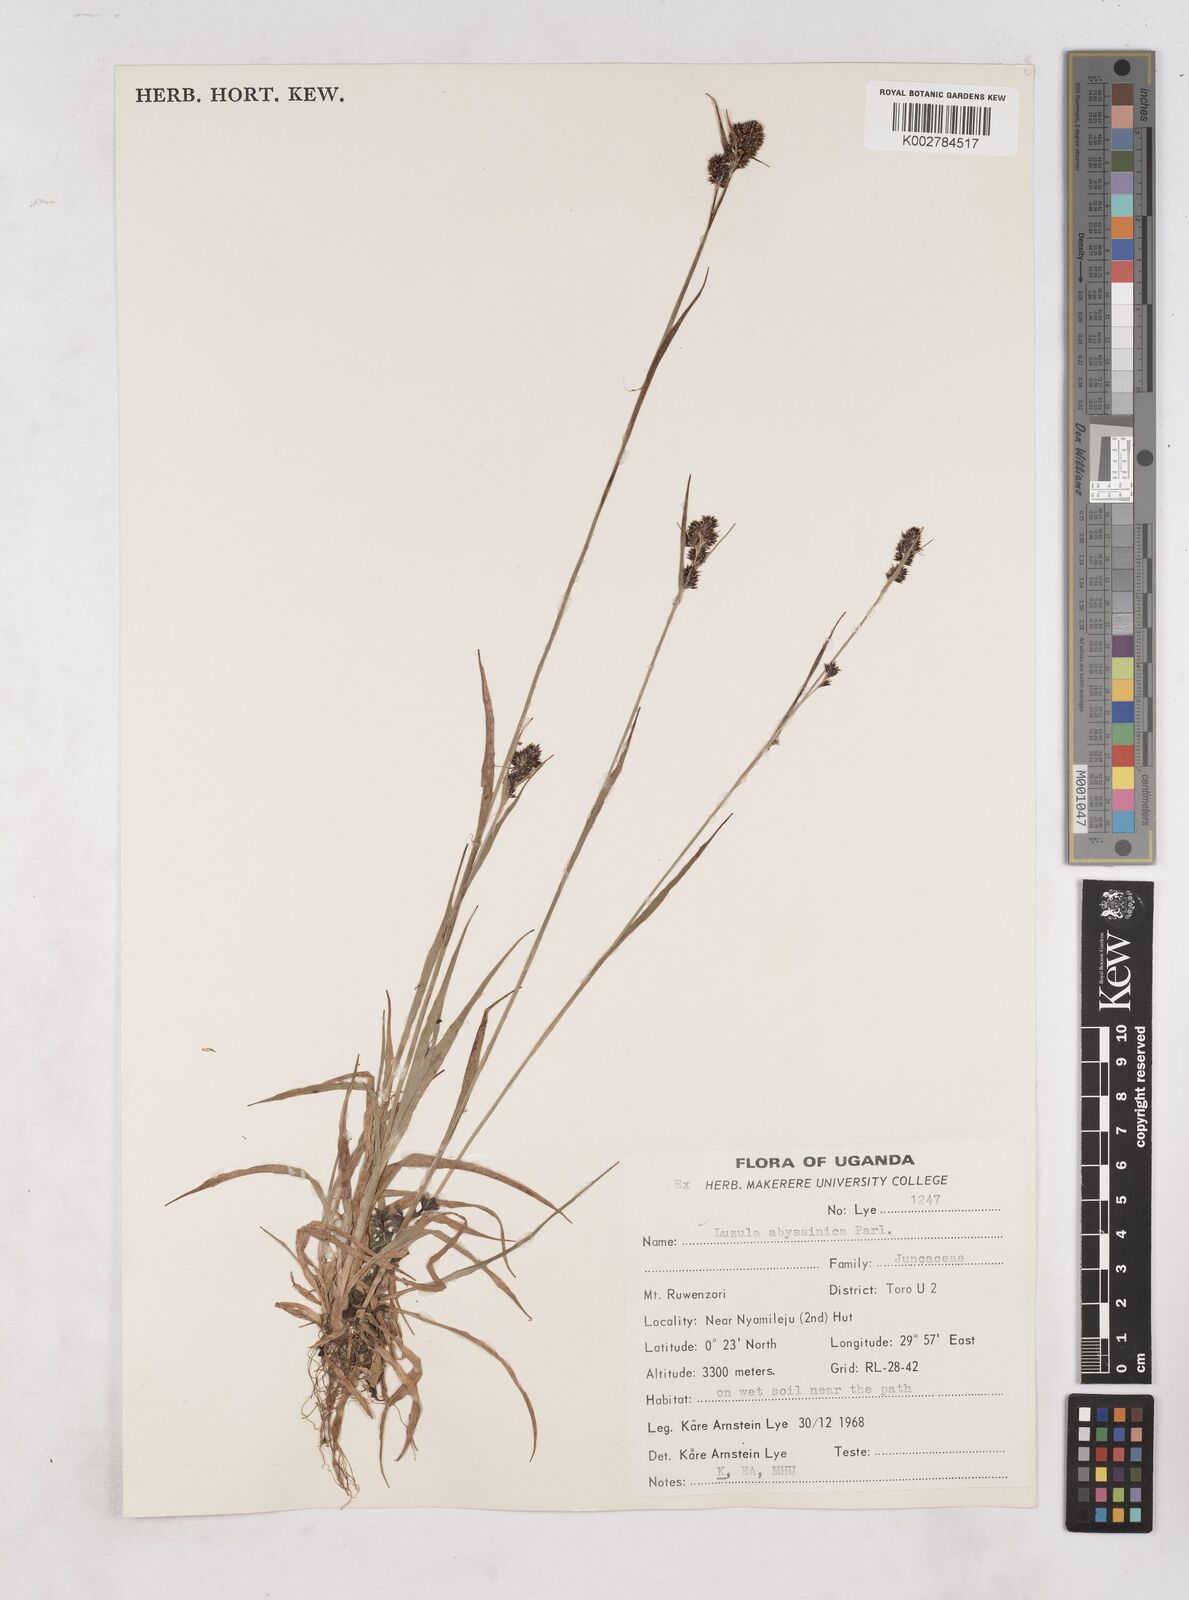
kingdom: Plantae
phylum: Tracheophyta
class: Liliopsida
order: Poales
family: Juncaceae
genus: Luzula
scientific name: Luzula abyssinica
